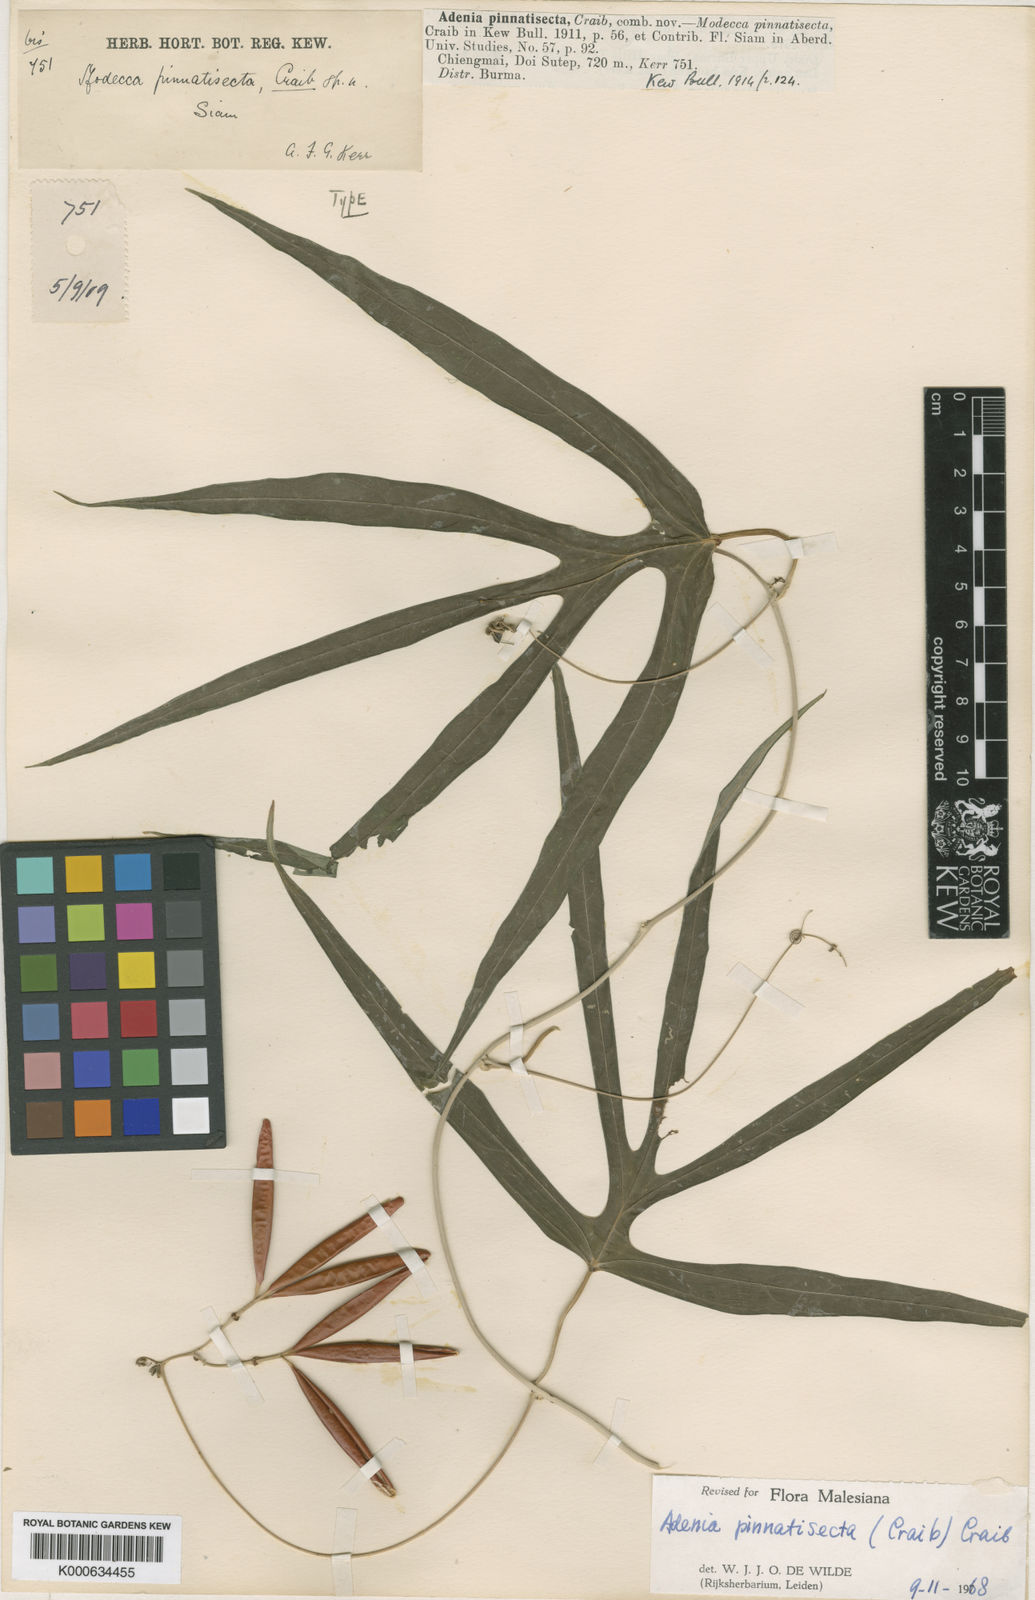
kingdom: Plantae
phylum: Tracheophyta
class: Magnoliopsida
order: Malpighiales
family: Passifloraceae
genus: Adenia
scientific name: Adenia pinnatisecta
